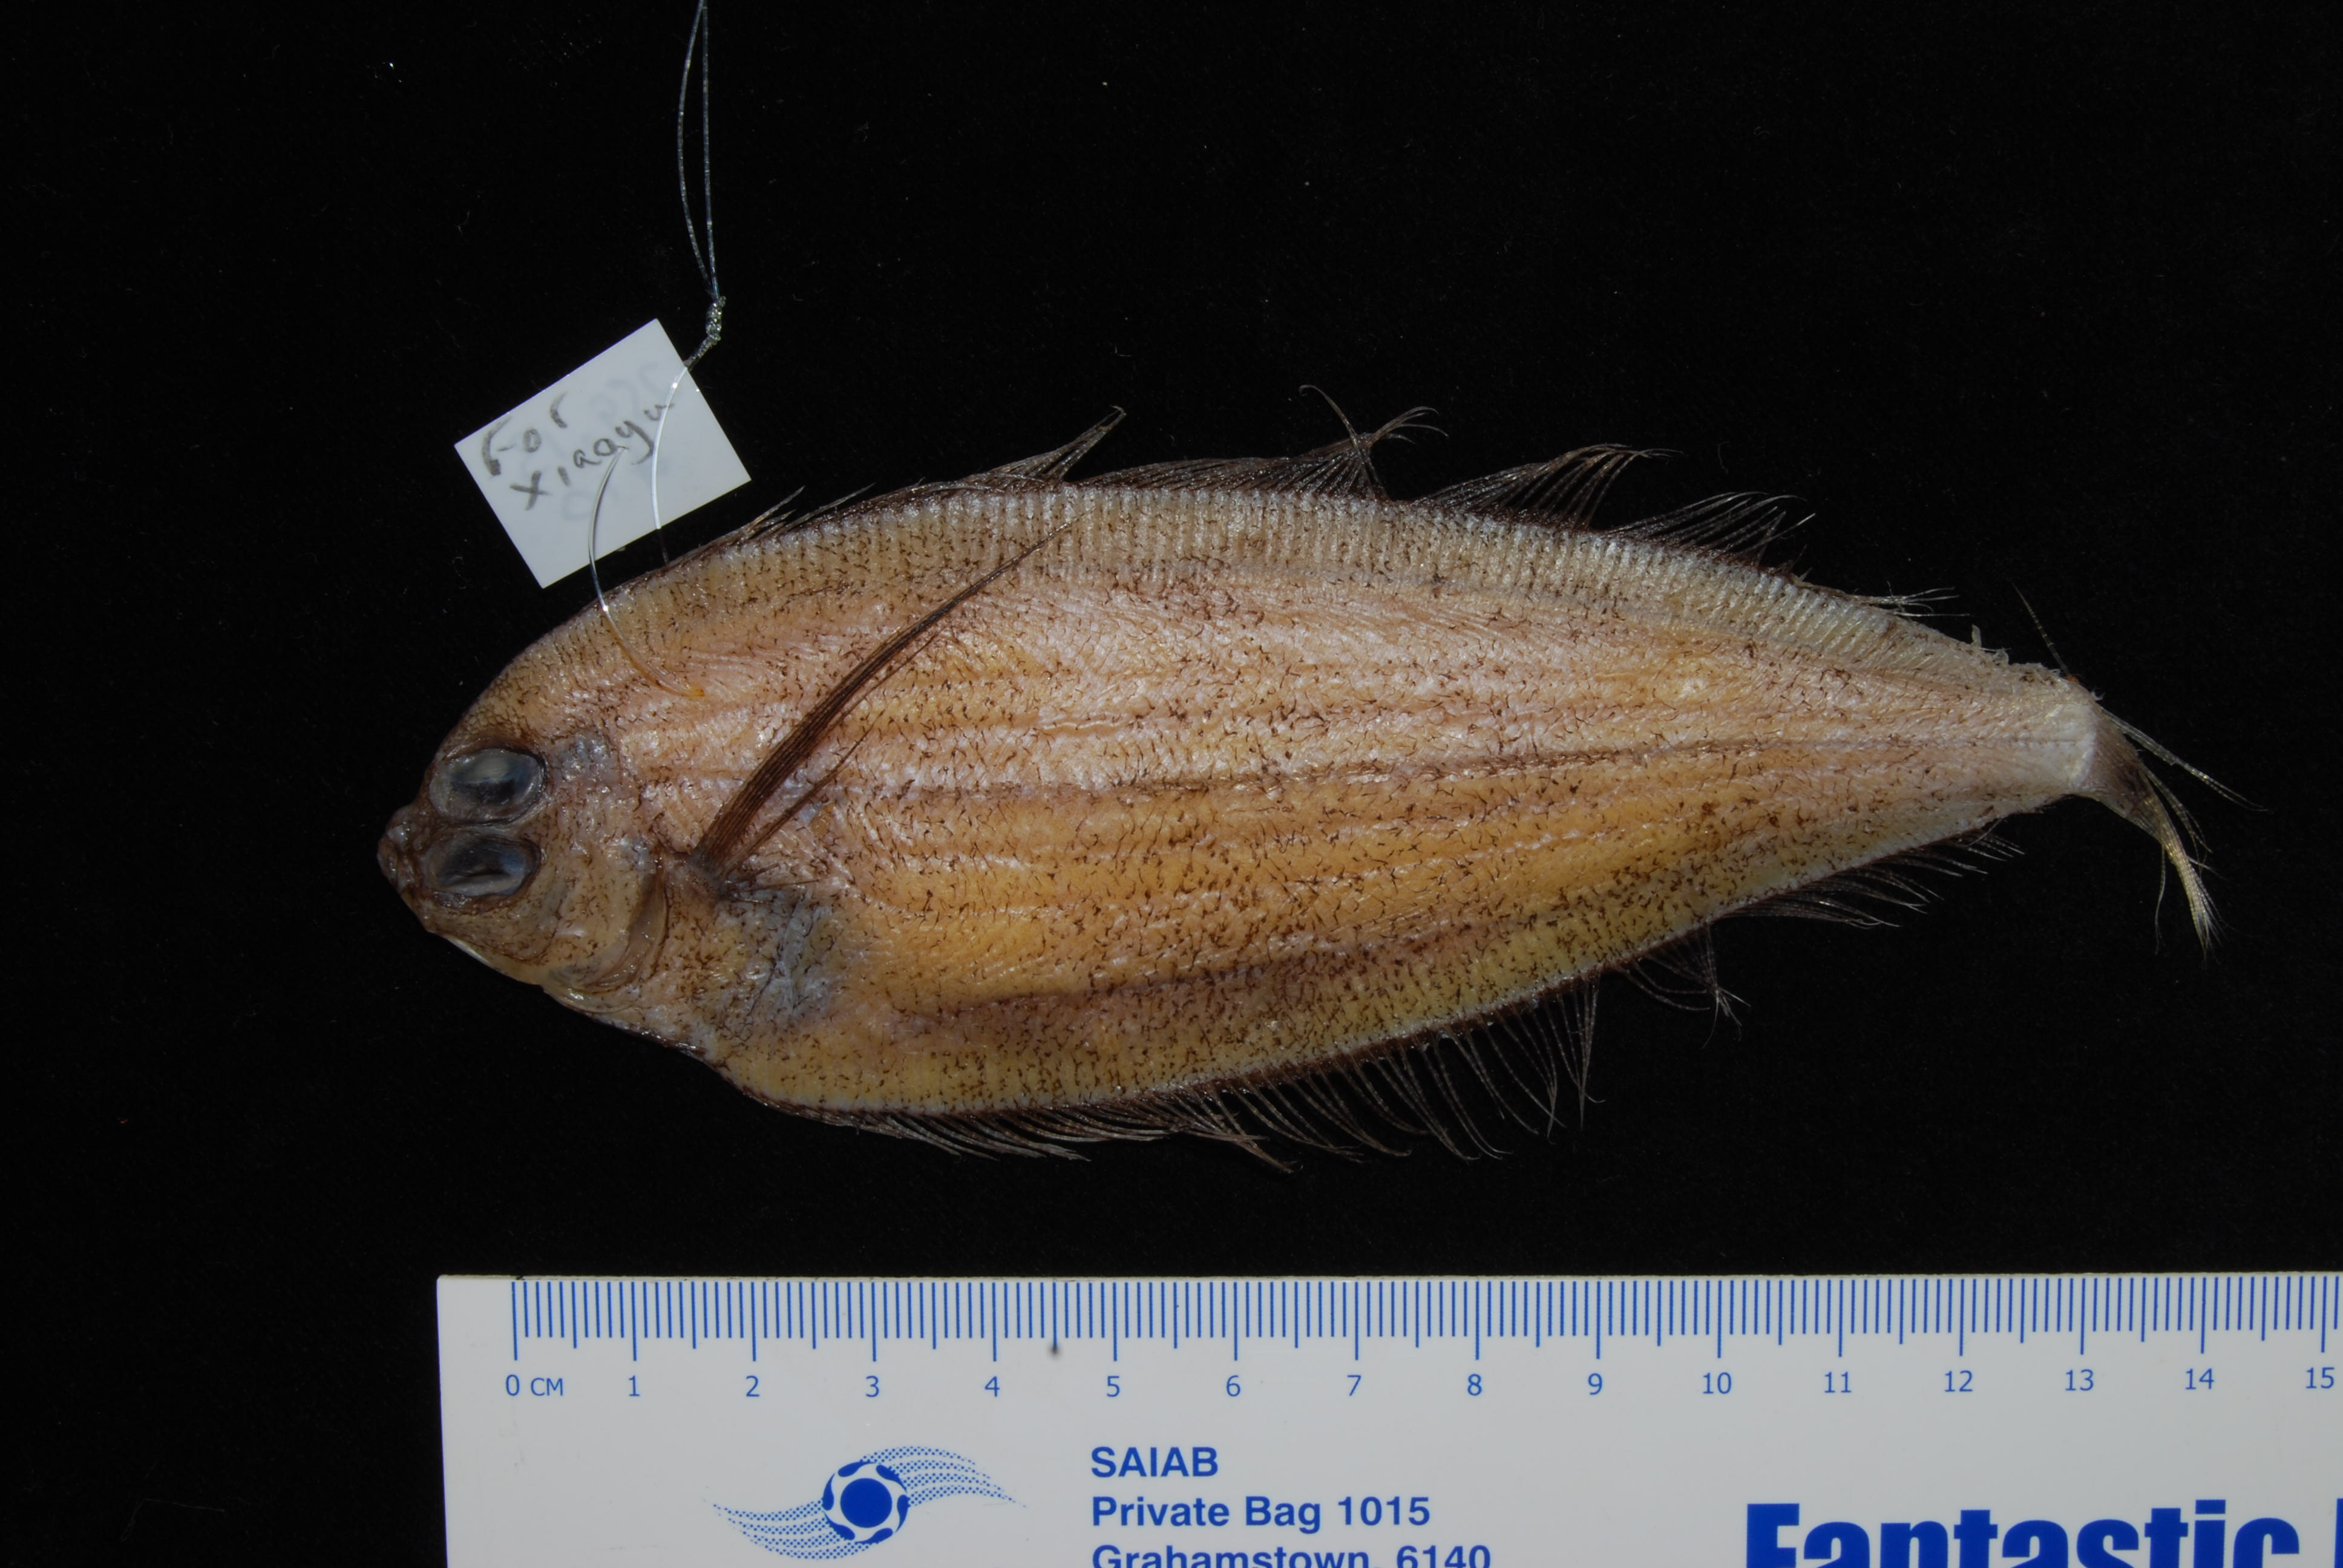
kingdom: Animalia
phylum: Chordata
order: Pleuronectiformes
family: Bothidae
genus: Laeops
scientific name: Laeops pectoralis
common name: Longarm flounder
